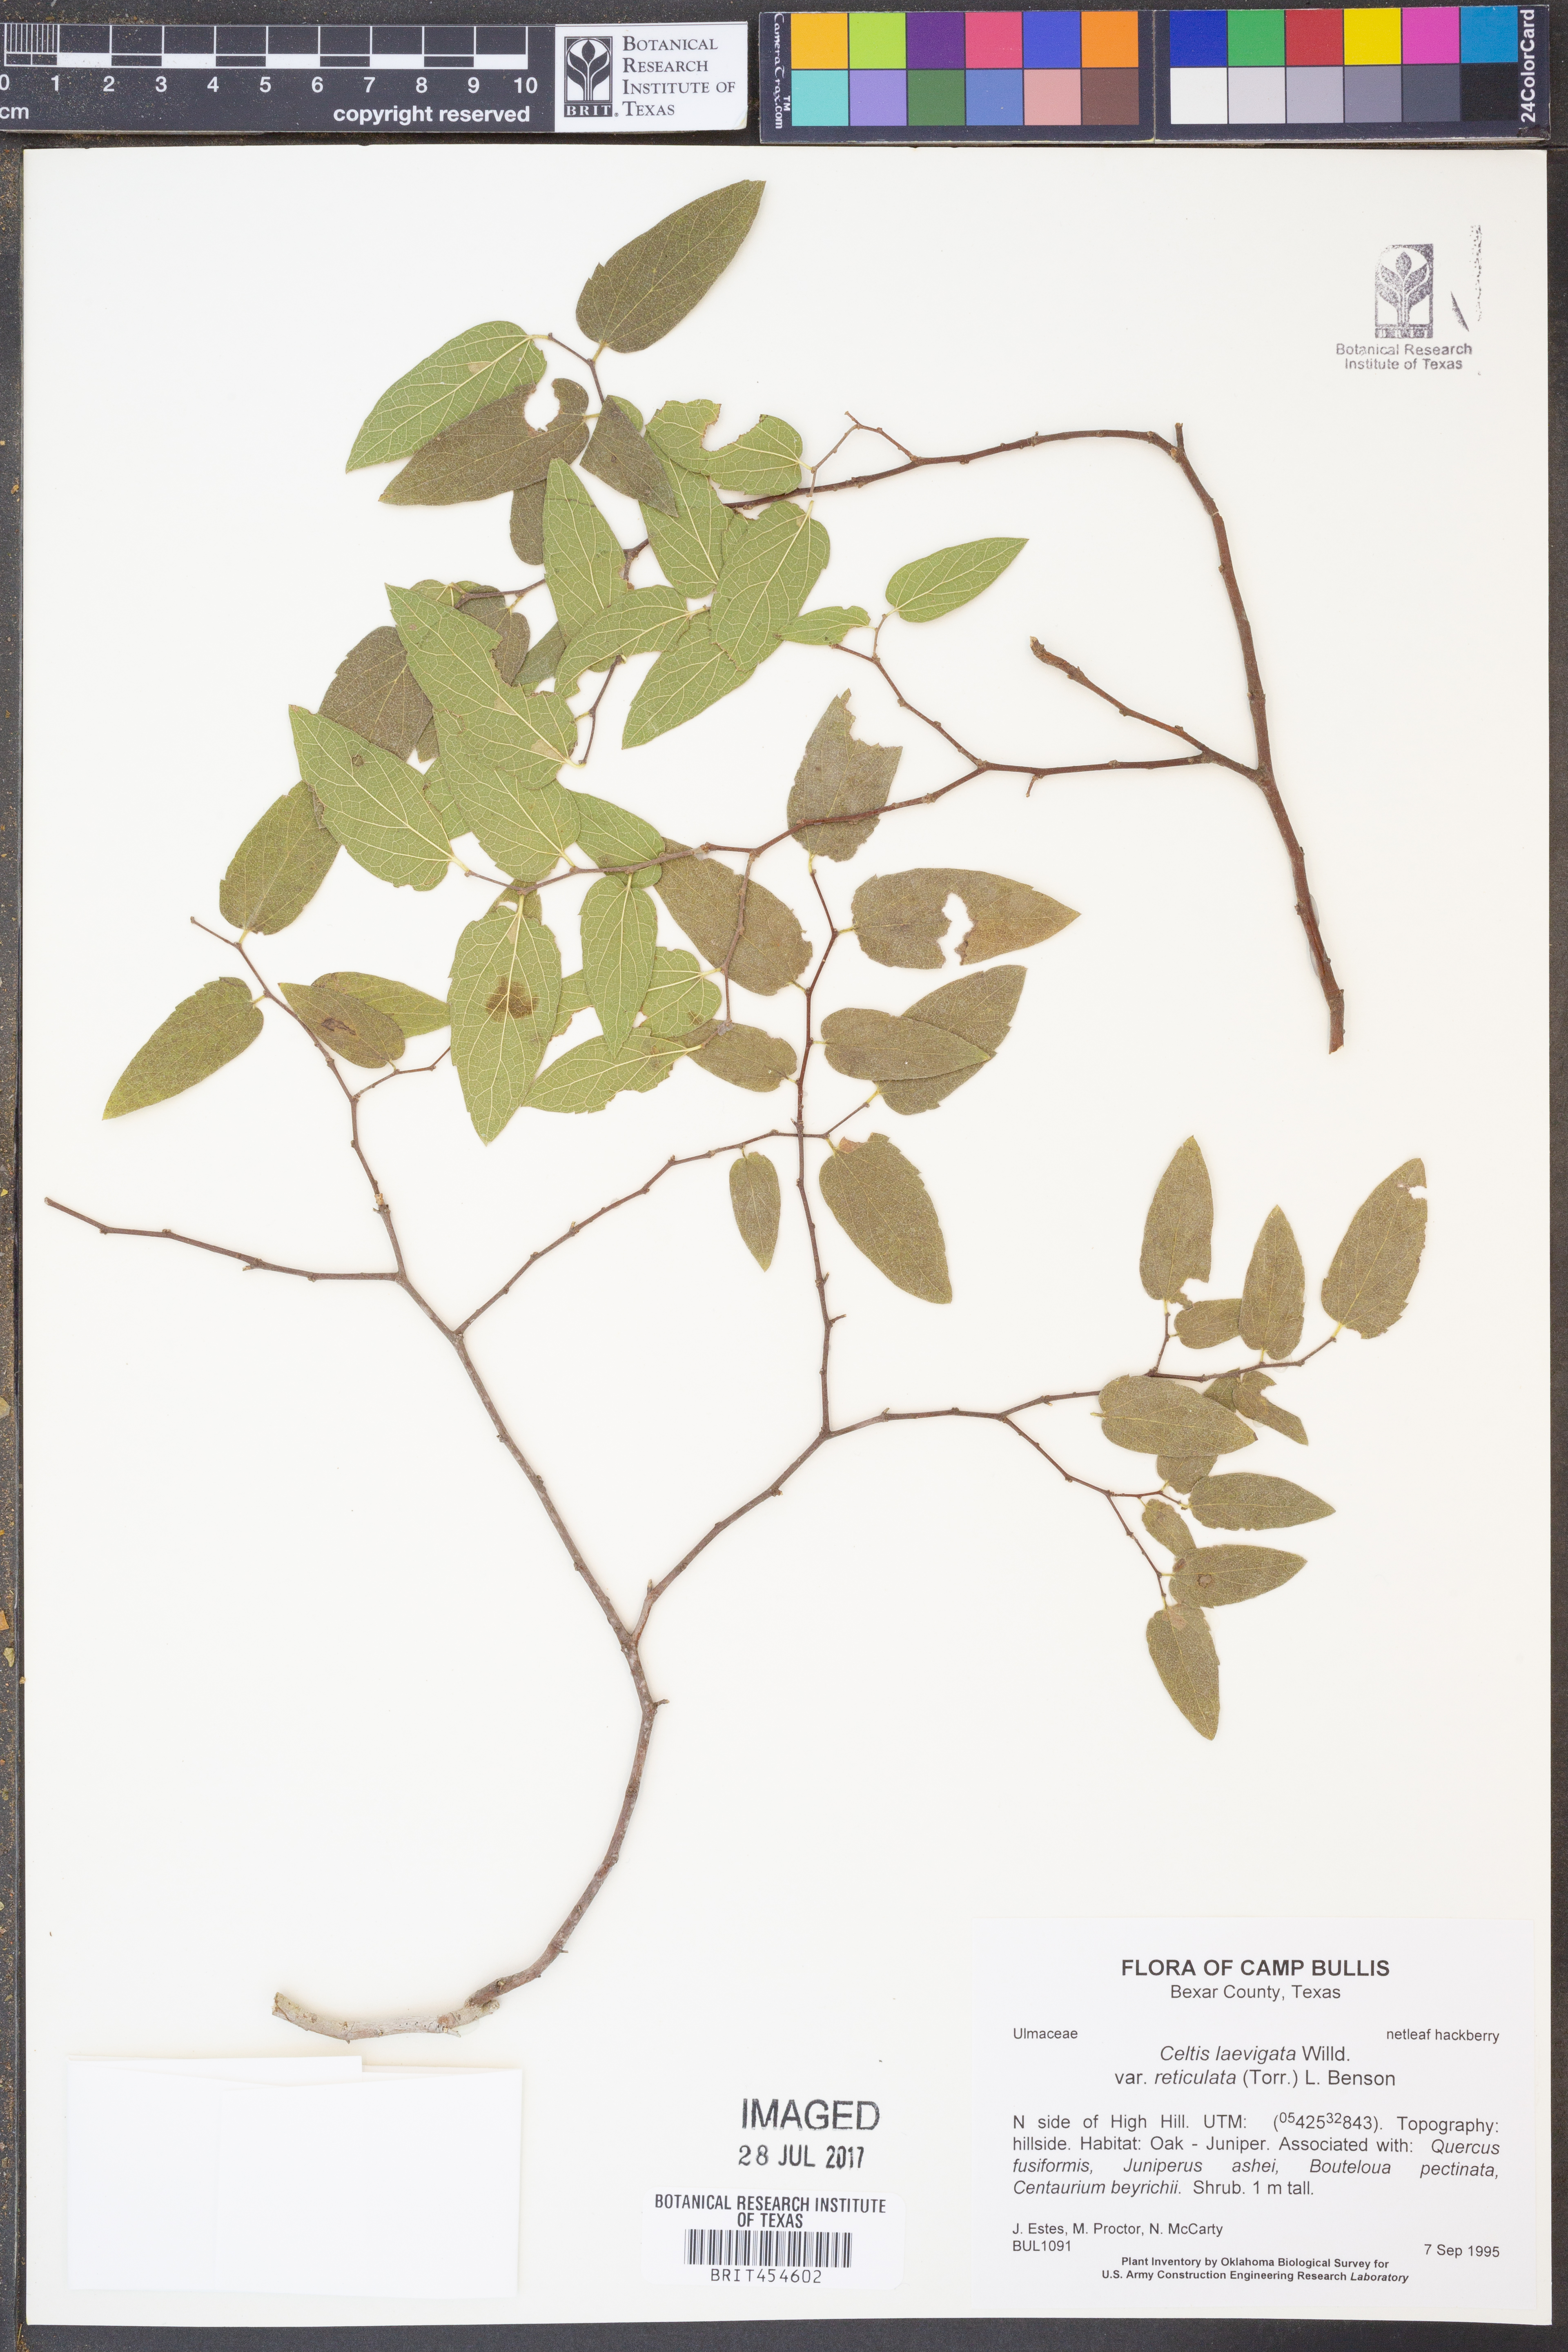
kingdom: Plantae
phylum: Tracheophyta
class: Magnoliopsida
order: Rosales
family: Cannabaceae
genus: Celtis
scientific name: Celtis reticulata
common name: Netleaf hackberry
